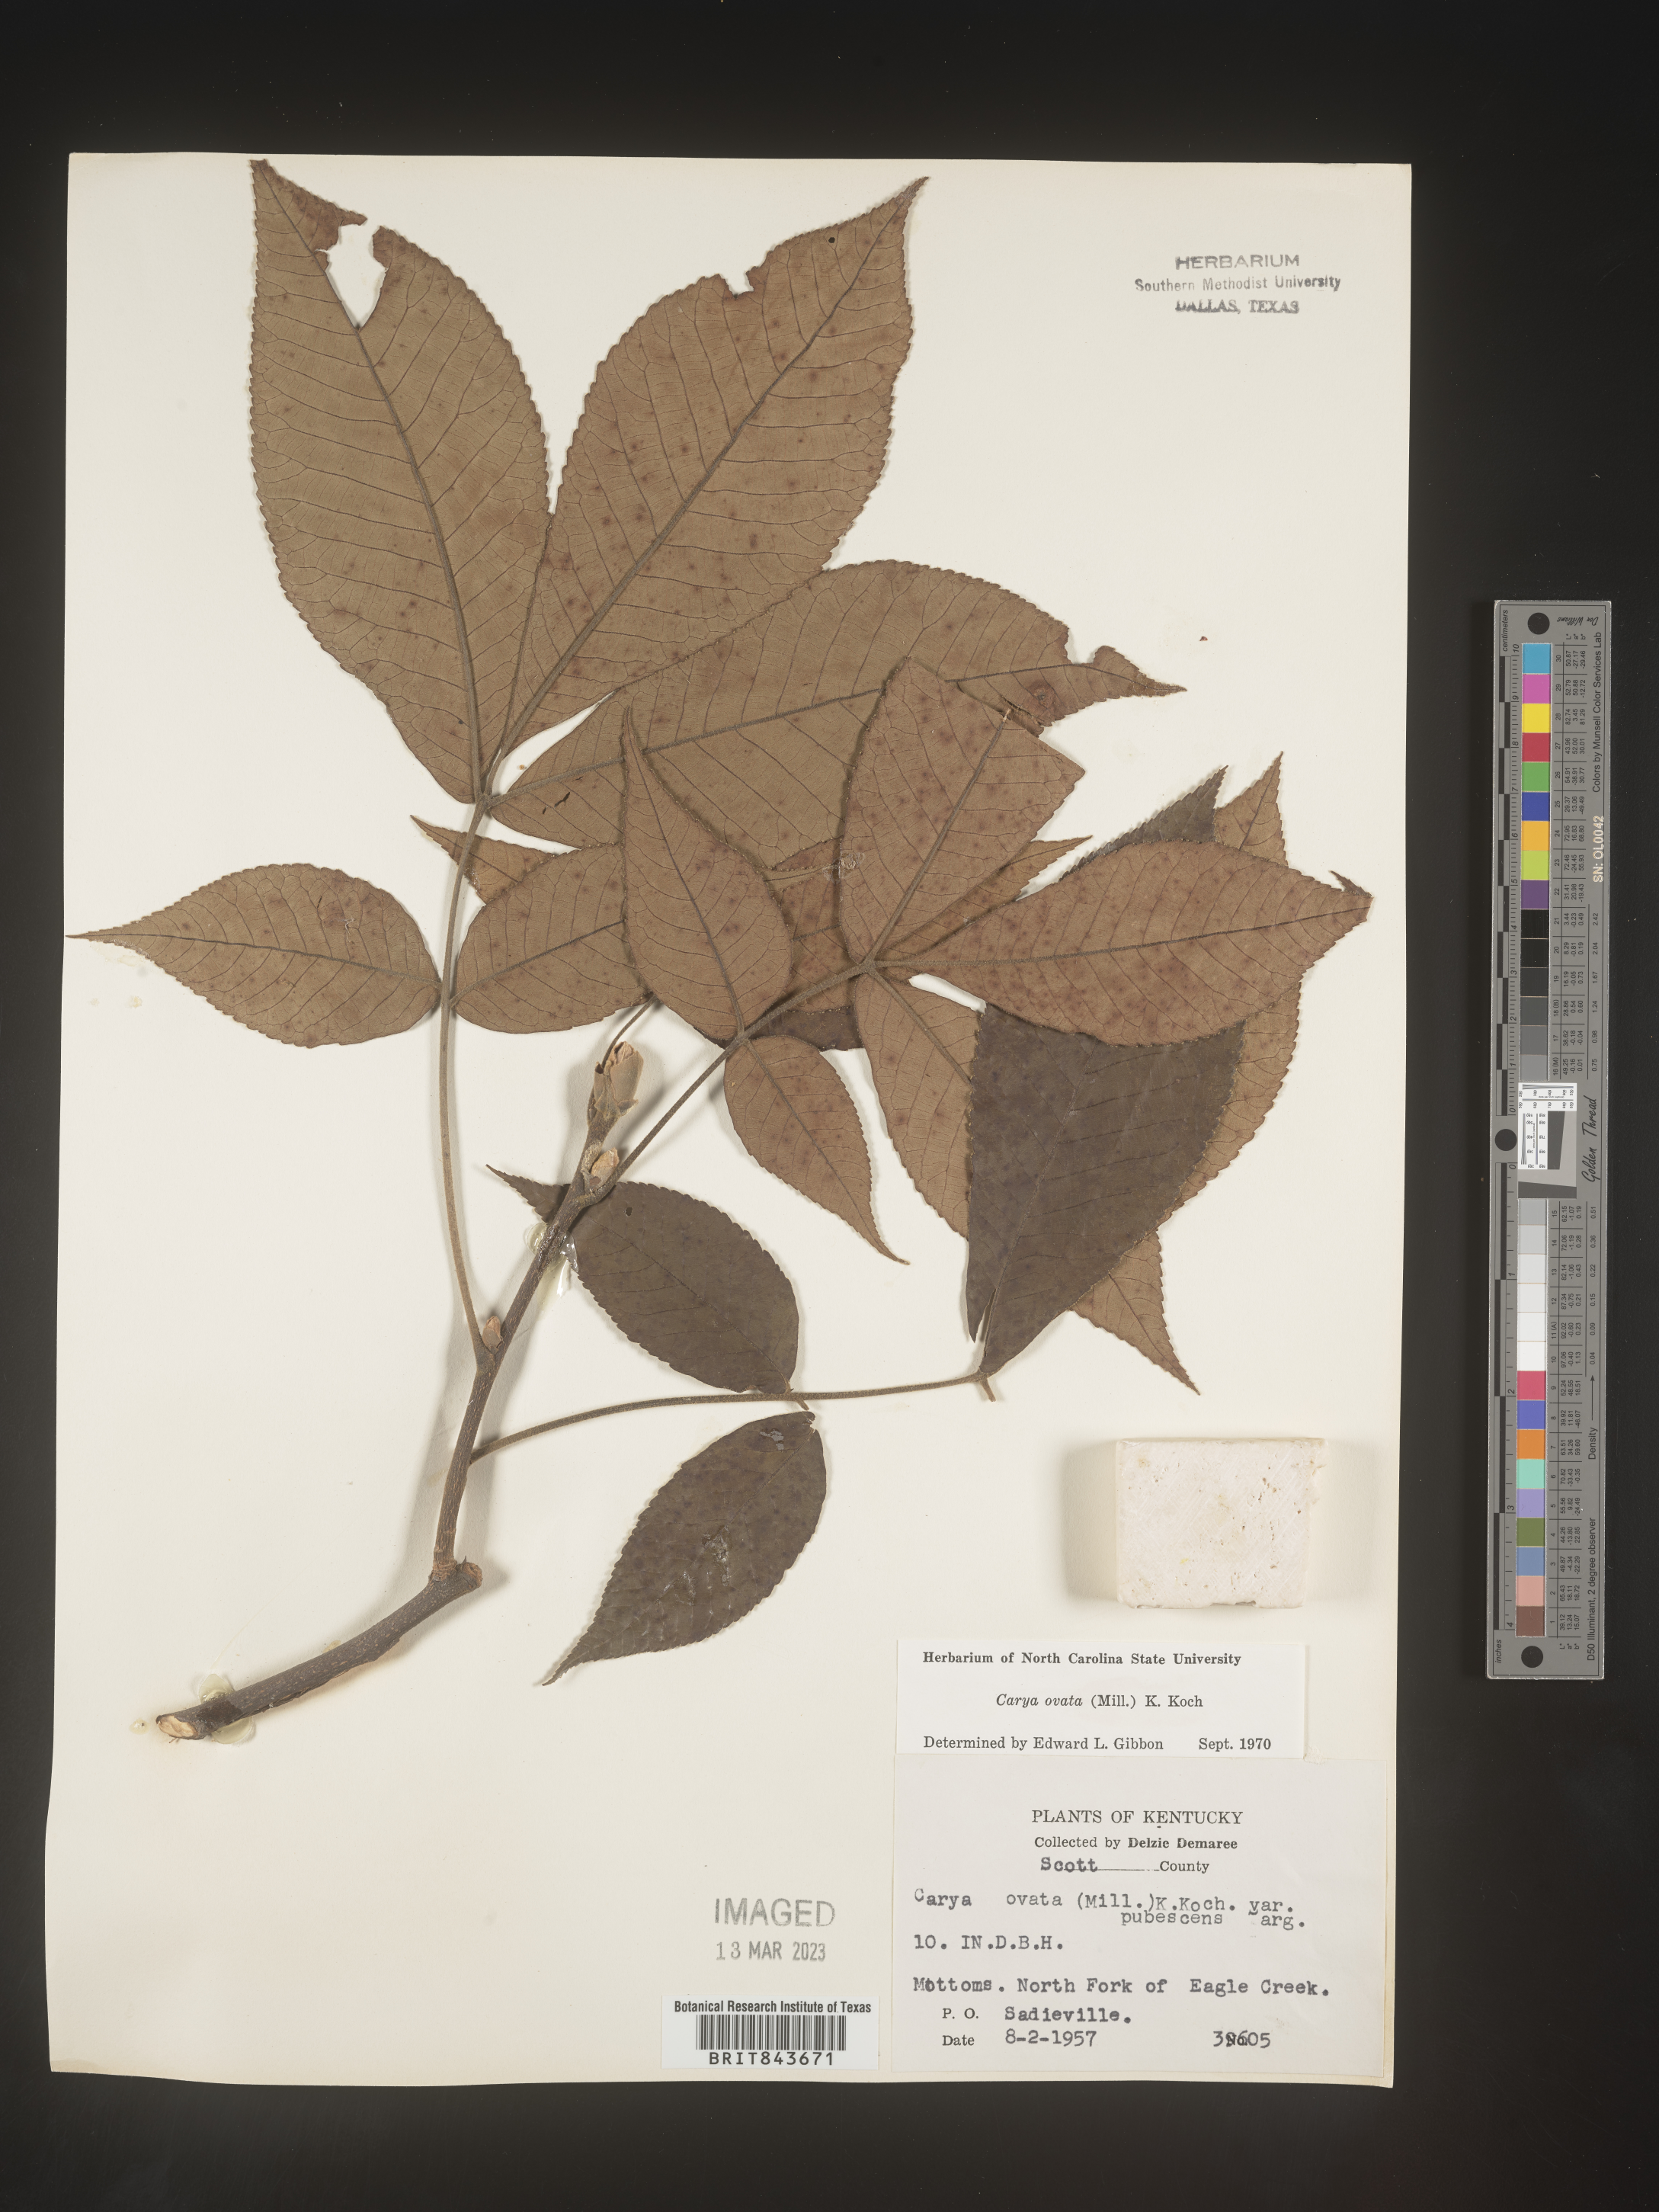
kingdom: Plantae
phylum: Tracheophyta
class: Magnoliopsida
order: Fagales
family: Juglandaceae
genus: Carya
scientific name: Carya ovata
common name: Shagbark hickory
